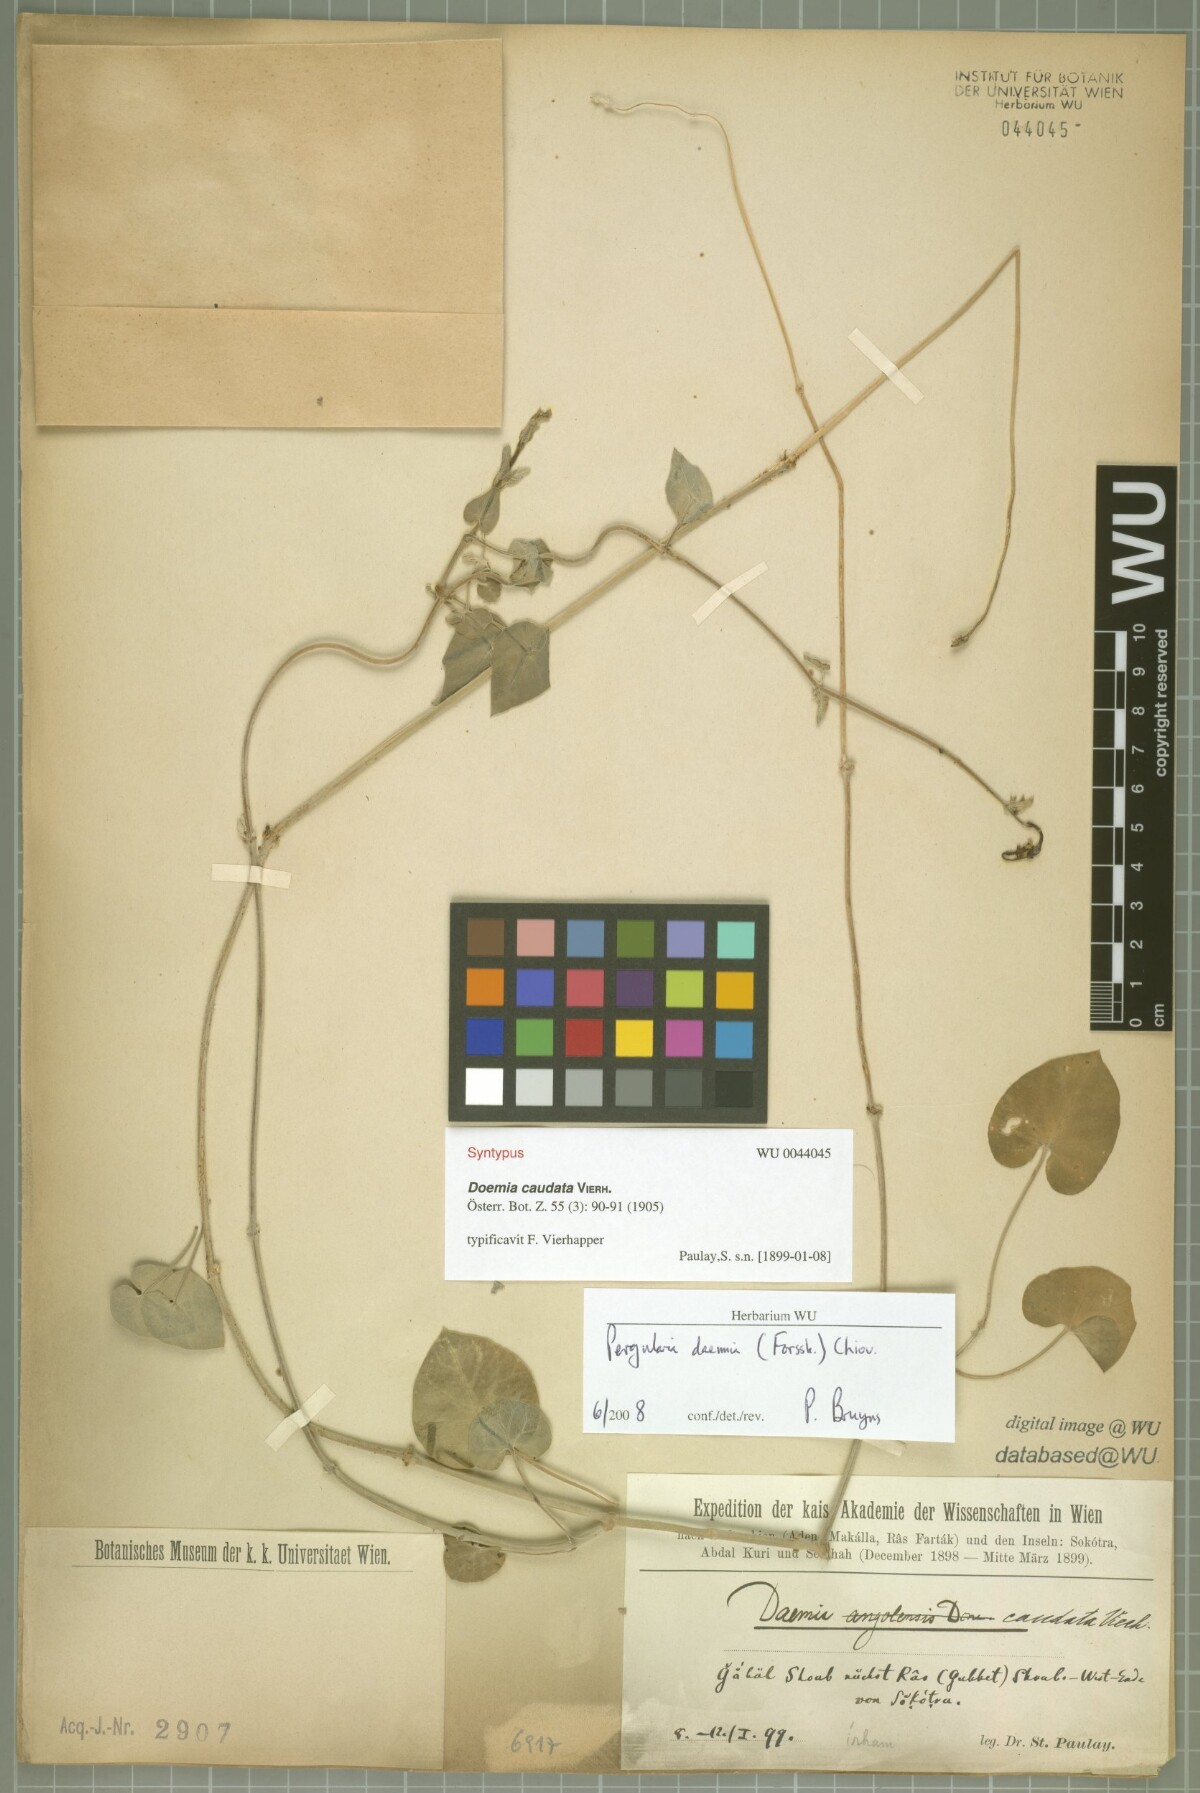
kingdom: Plantae
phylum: Tracheophyta
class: Magnoliopsida
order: Gentianales
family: Apocynaceae
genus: Pergularia
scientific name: Pergularia tomentosa
